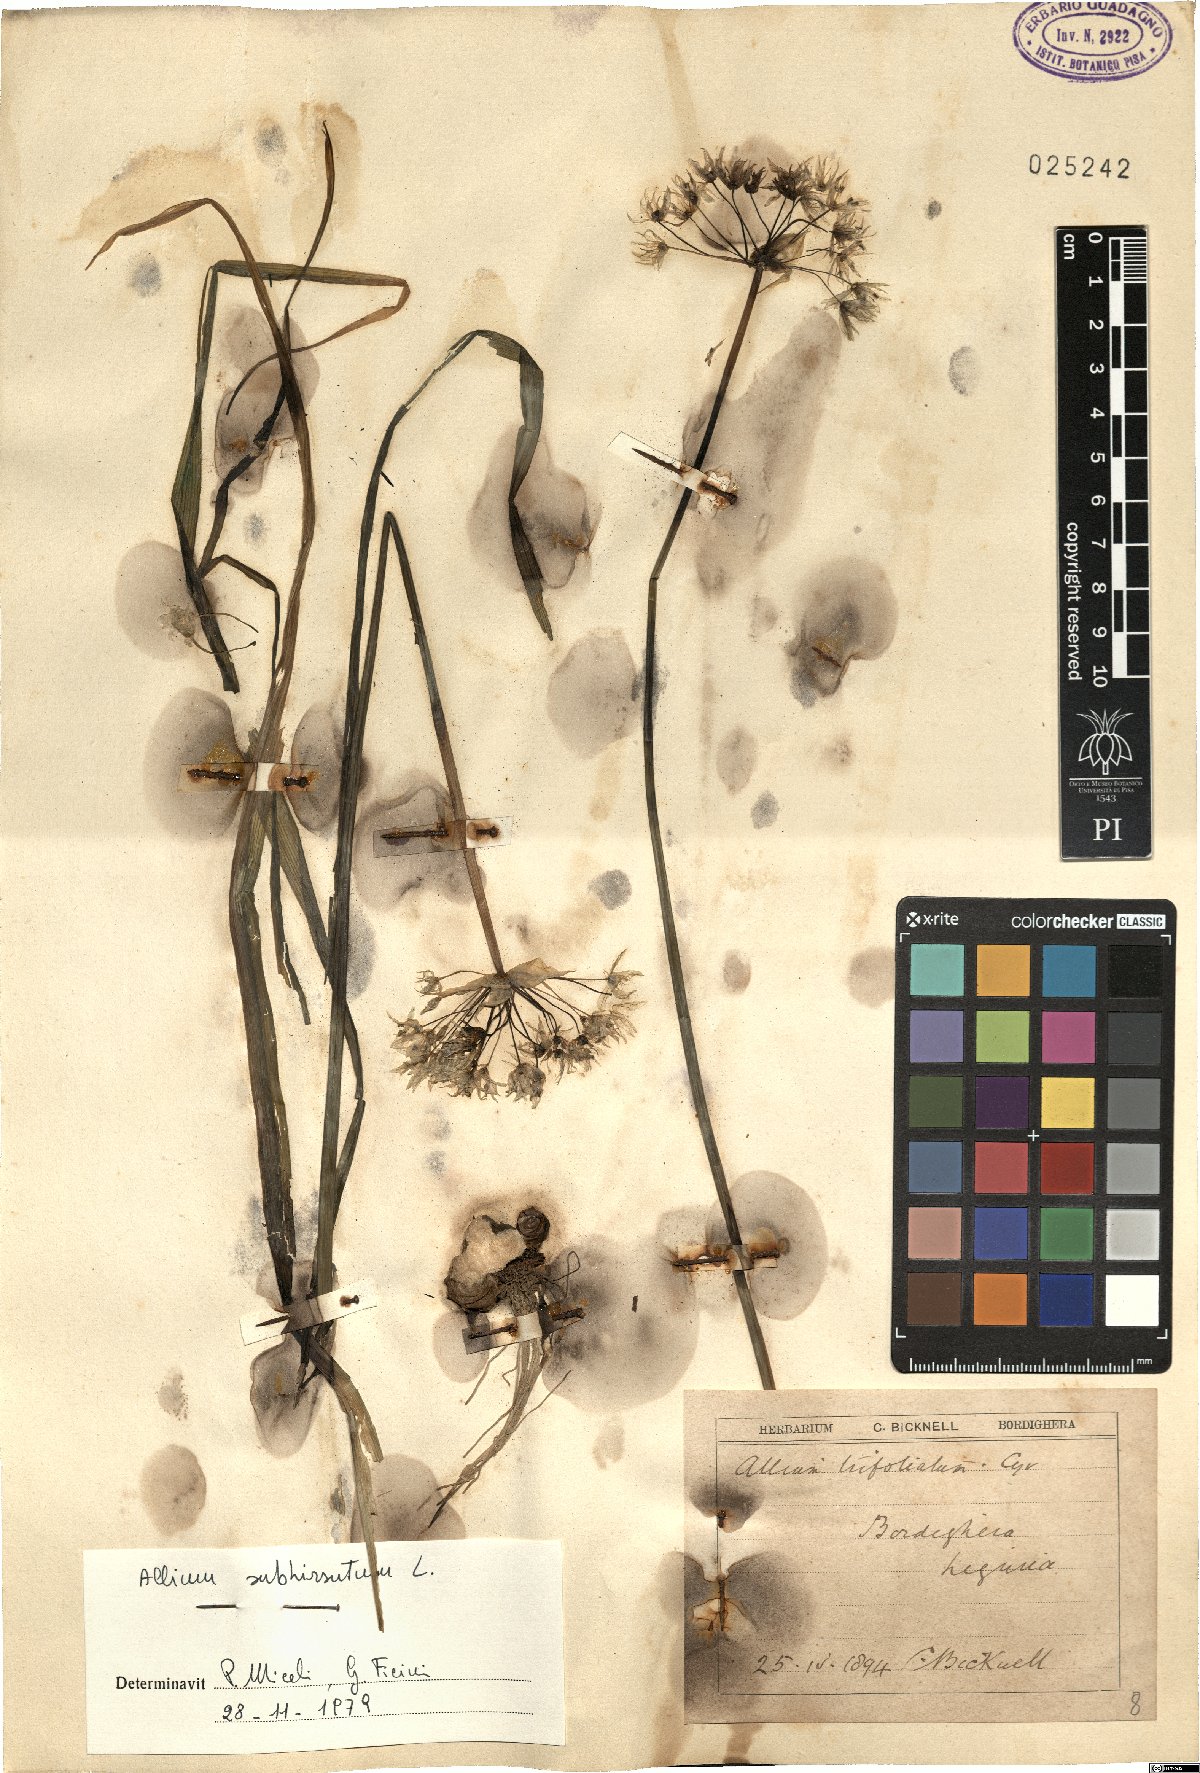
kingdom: Plantae
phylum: Tracheophyta
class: Liliopsida
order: Asparagales
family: Amaryllidaceae
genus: Allium
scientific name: Allium subhirsutum
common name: Hairy garlic
